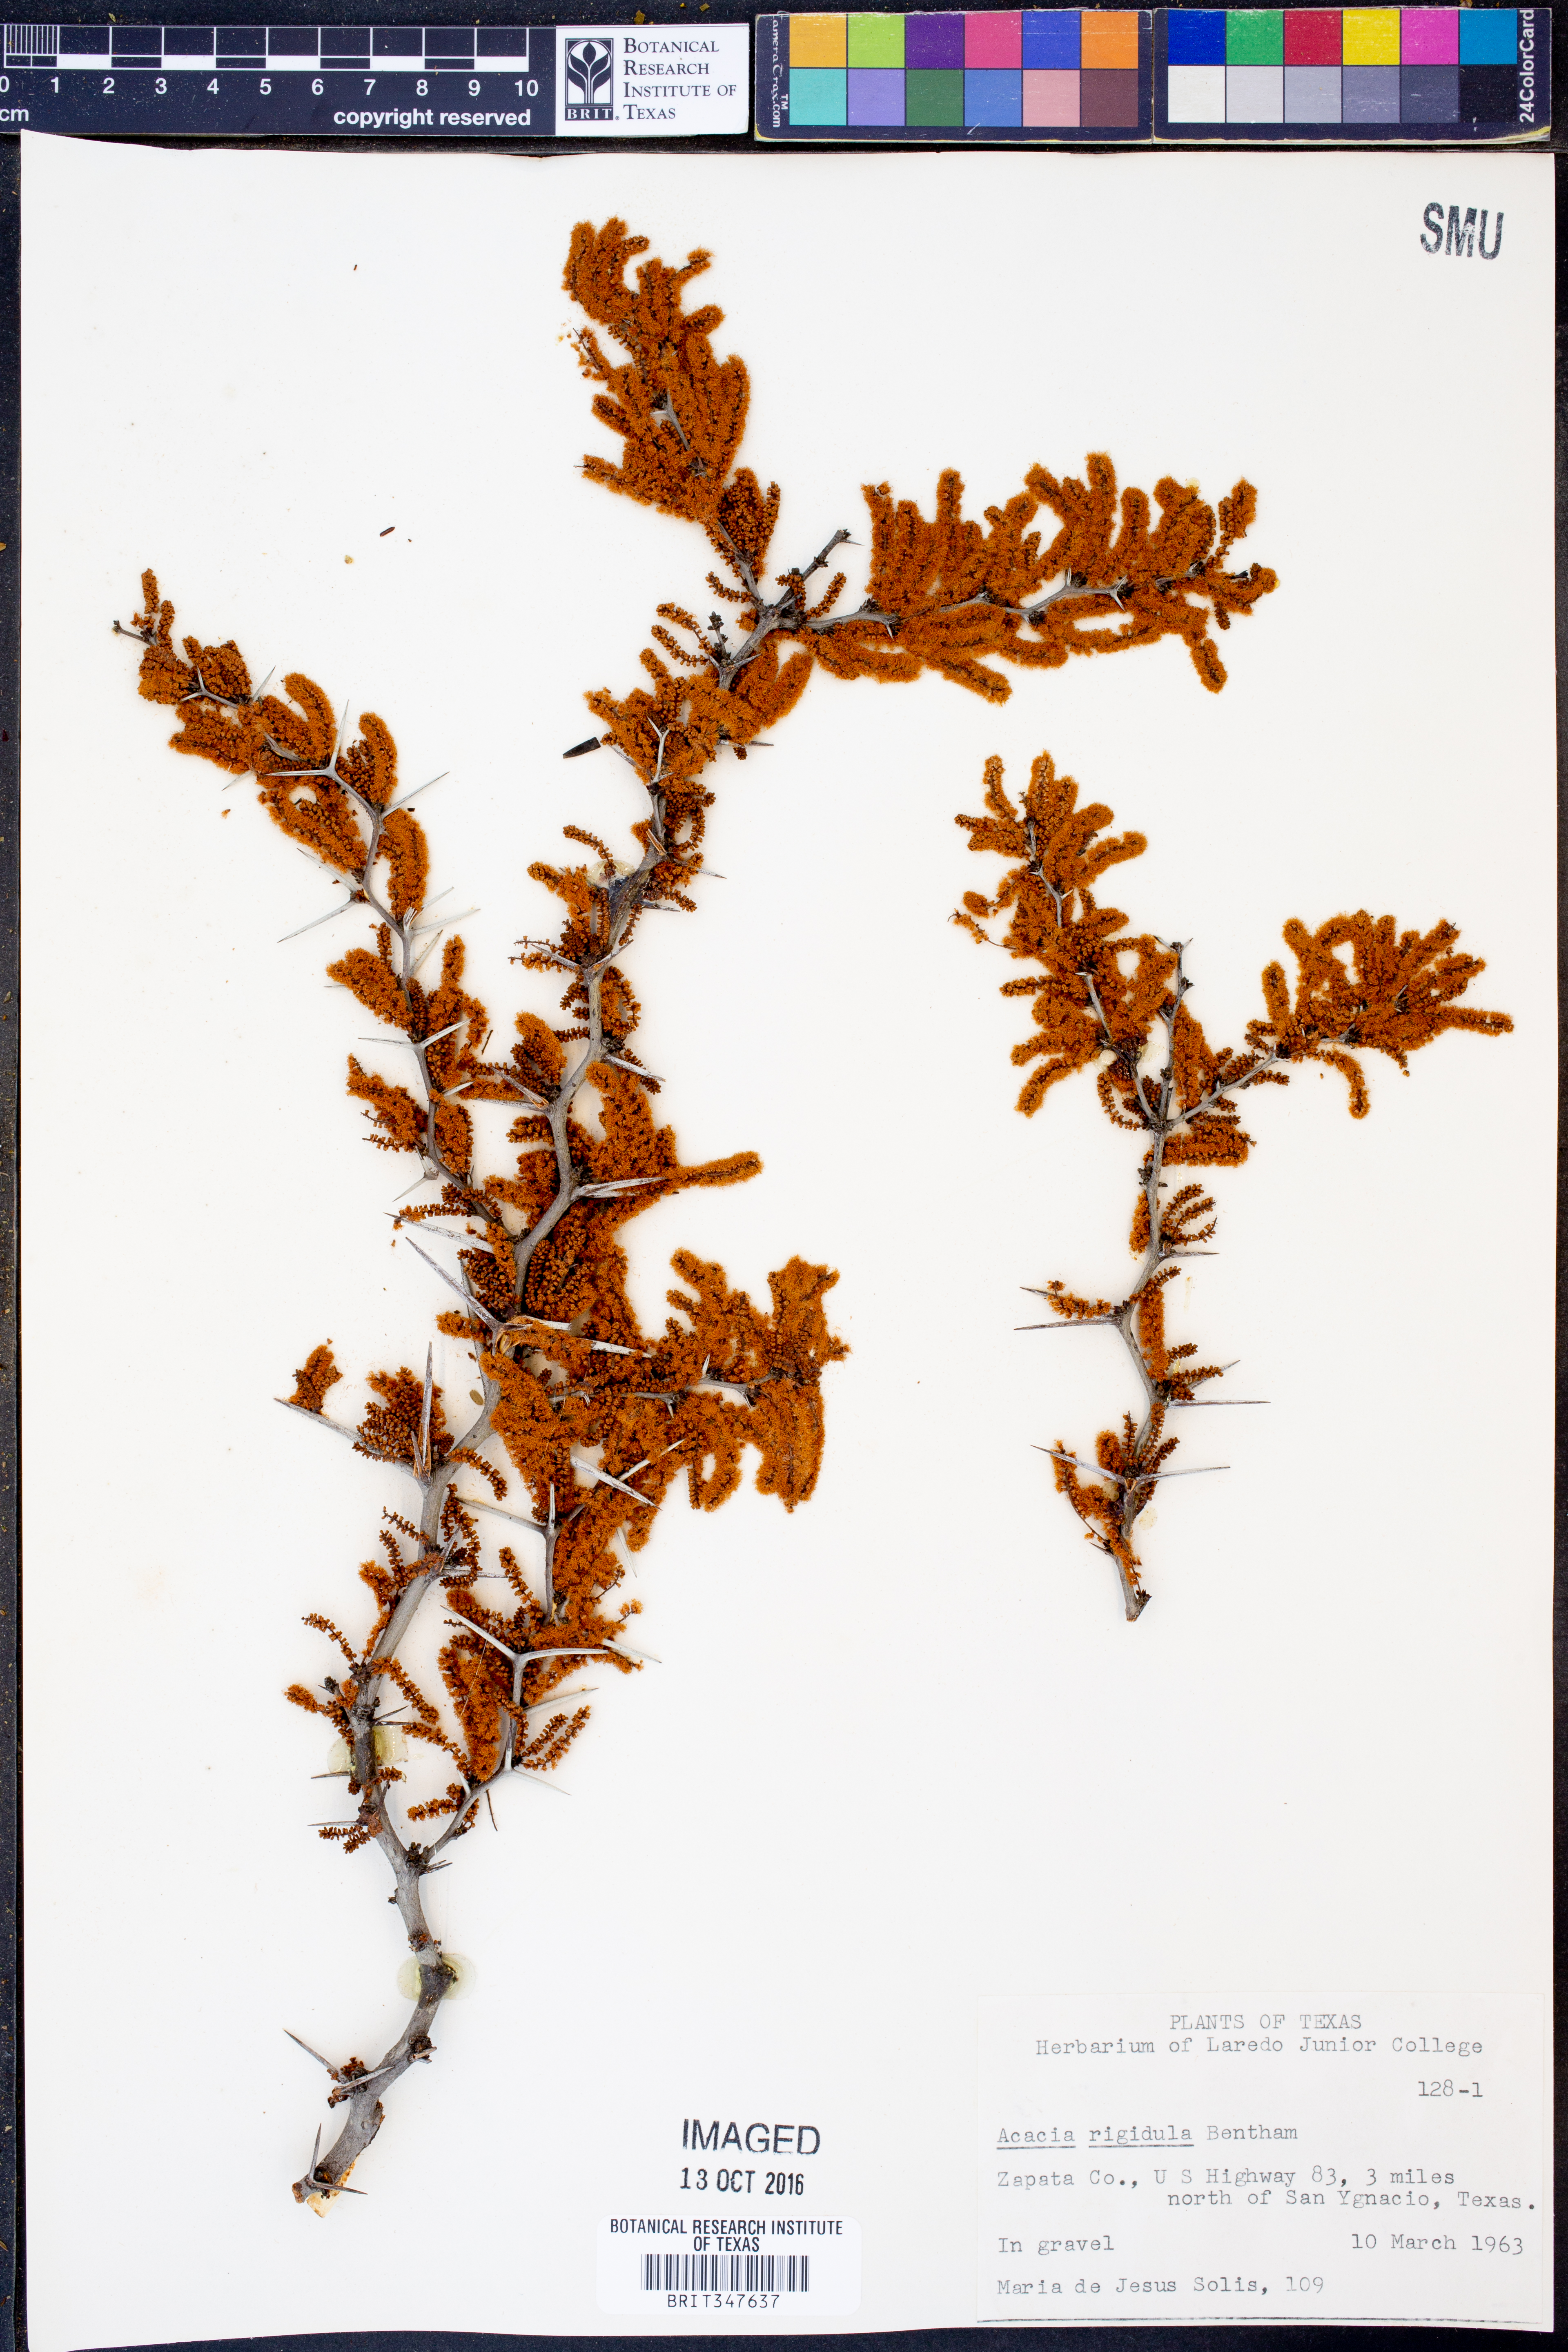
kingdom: Plantae
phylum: Tracheophyta
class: Magnoliopsida
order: Fabales
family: Fabaceae
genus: Vachellia
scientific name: Vachellia rigidula
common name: Blackbrush
